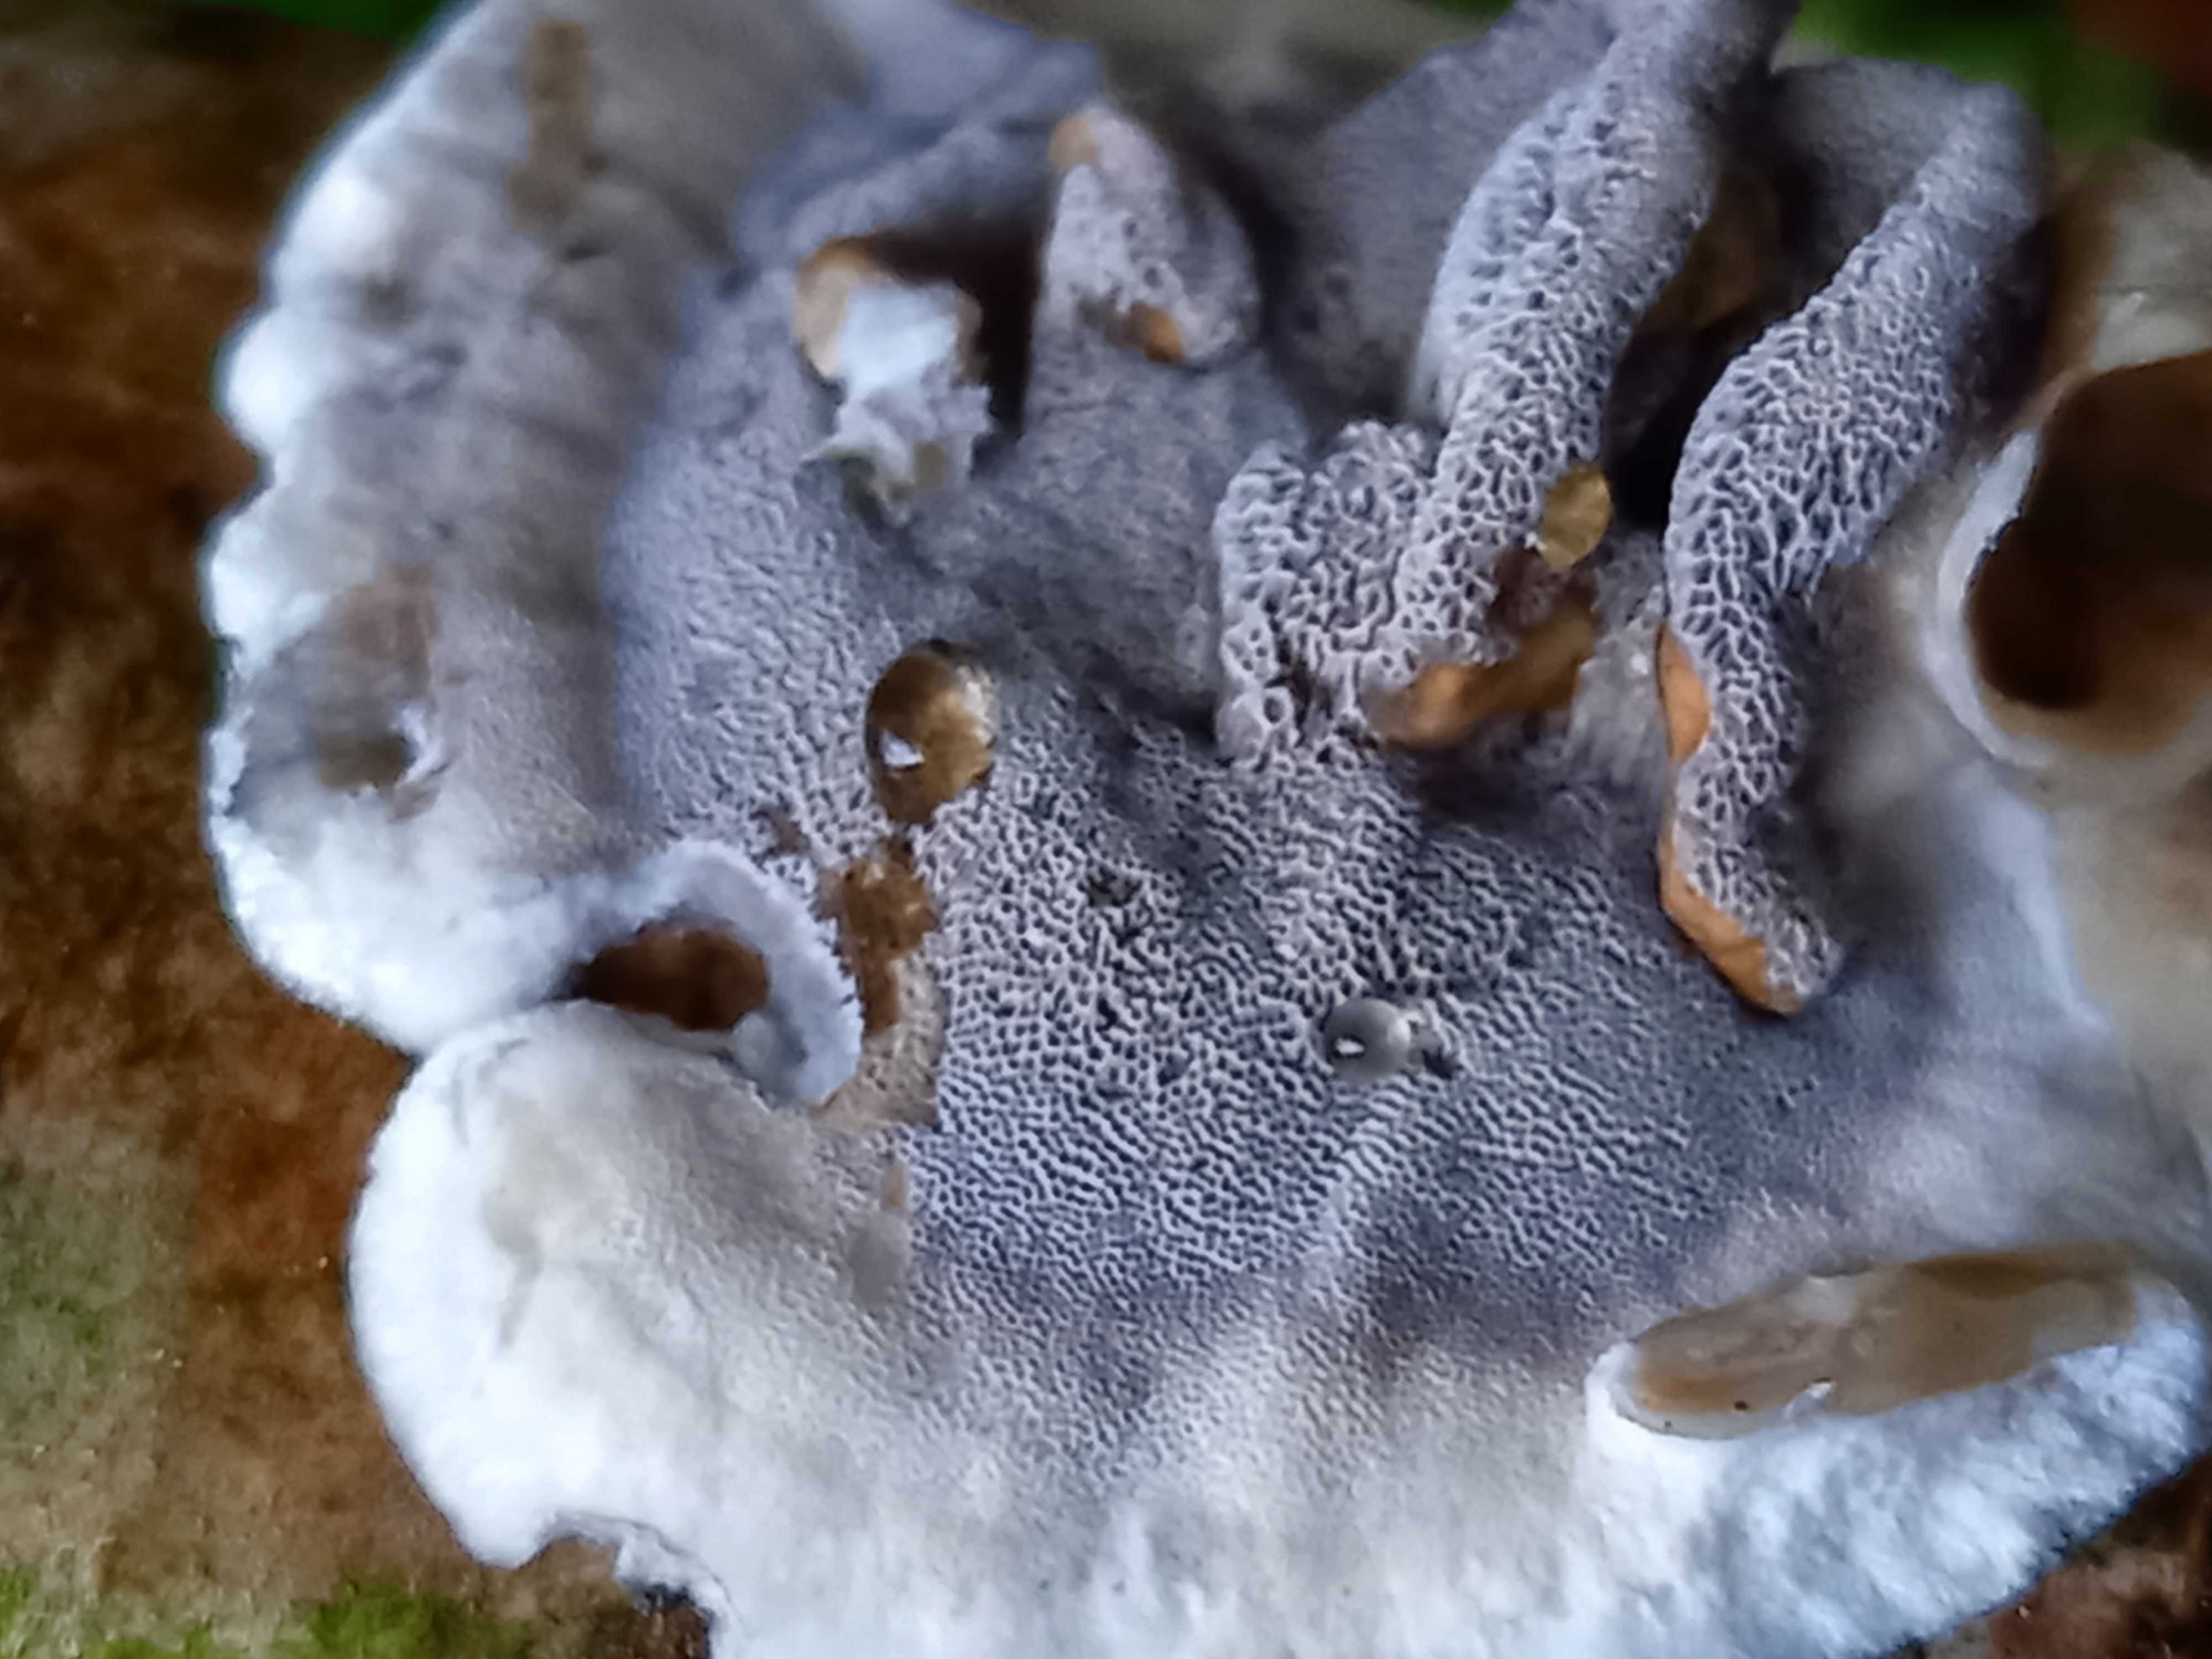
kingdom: Fungi
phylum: Basidiomycota
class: Agaricomycetes
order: Polyporales
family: Phanerochaetaceae
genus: Bjerkandera
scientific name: Bjerkandera adusta
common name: sveden sodporesvamp
